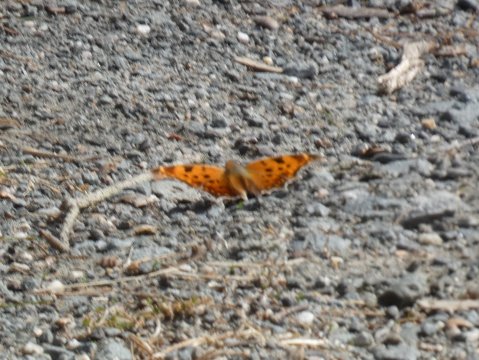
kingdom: Animalia
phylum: Arthropoda
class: Insecta
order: Lepidoptera
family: Nymphalidae
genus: Polygonia
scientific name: Polygonia comma
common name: Eastern Comma
